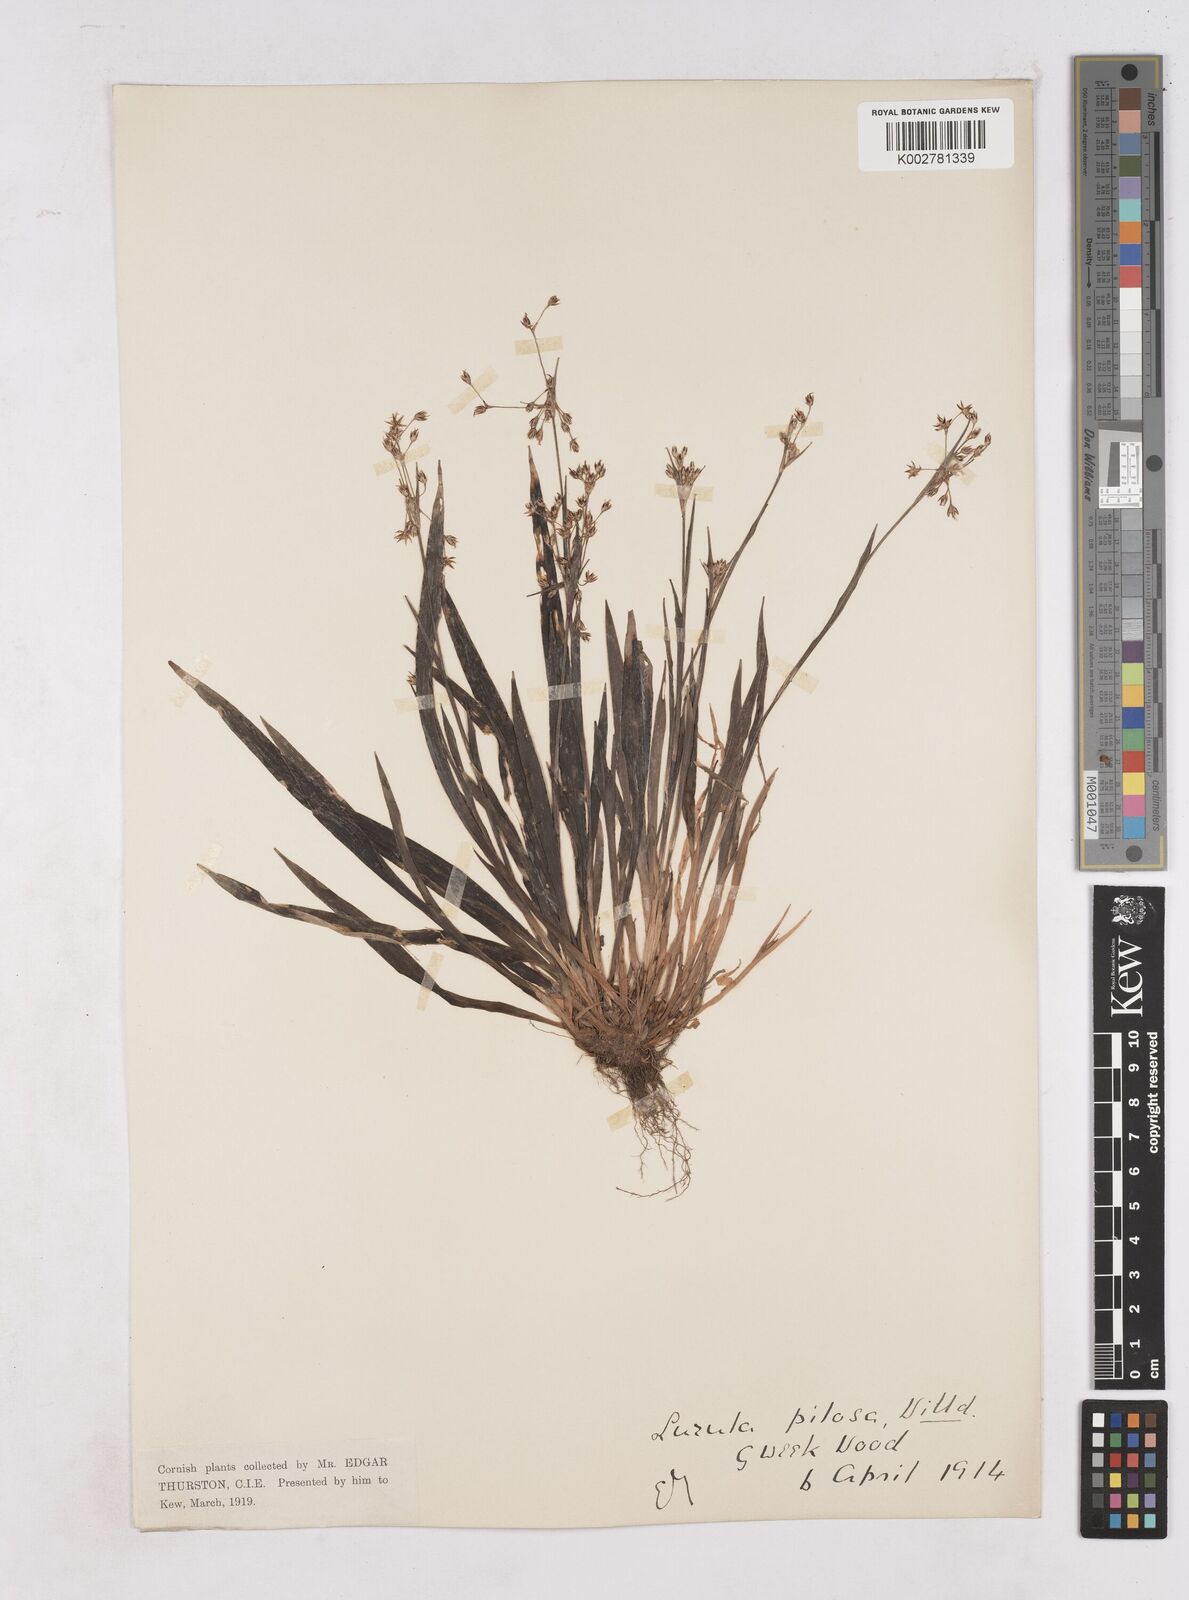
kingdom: Plantae
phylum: Tracheophyta
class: Liliopsida
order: Poales
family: Juncaceae
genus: Luzula
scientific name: Luzula pilosa
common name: Hairy wood-rush
